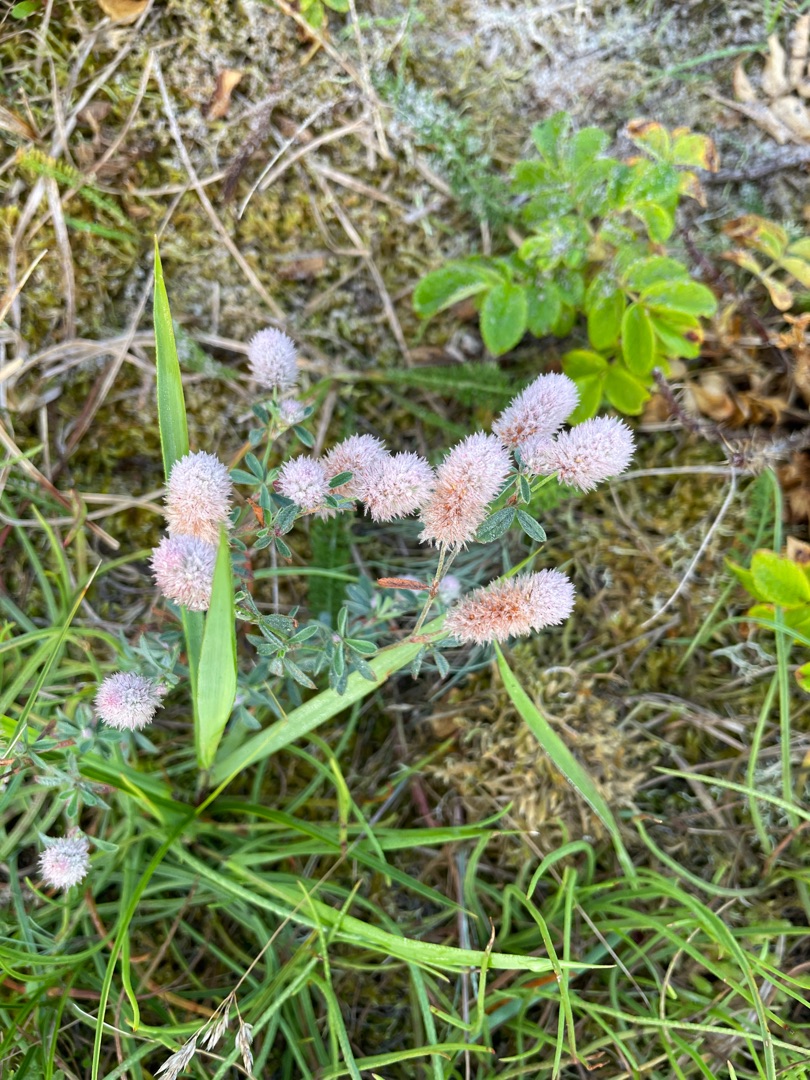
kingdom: Plantae
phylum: Tracheophyta
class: Magnoliopsida
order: Fabales
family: Fabaceae
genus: Trifolium
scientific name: Trifolium arvense
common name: Hare-kløver
